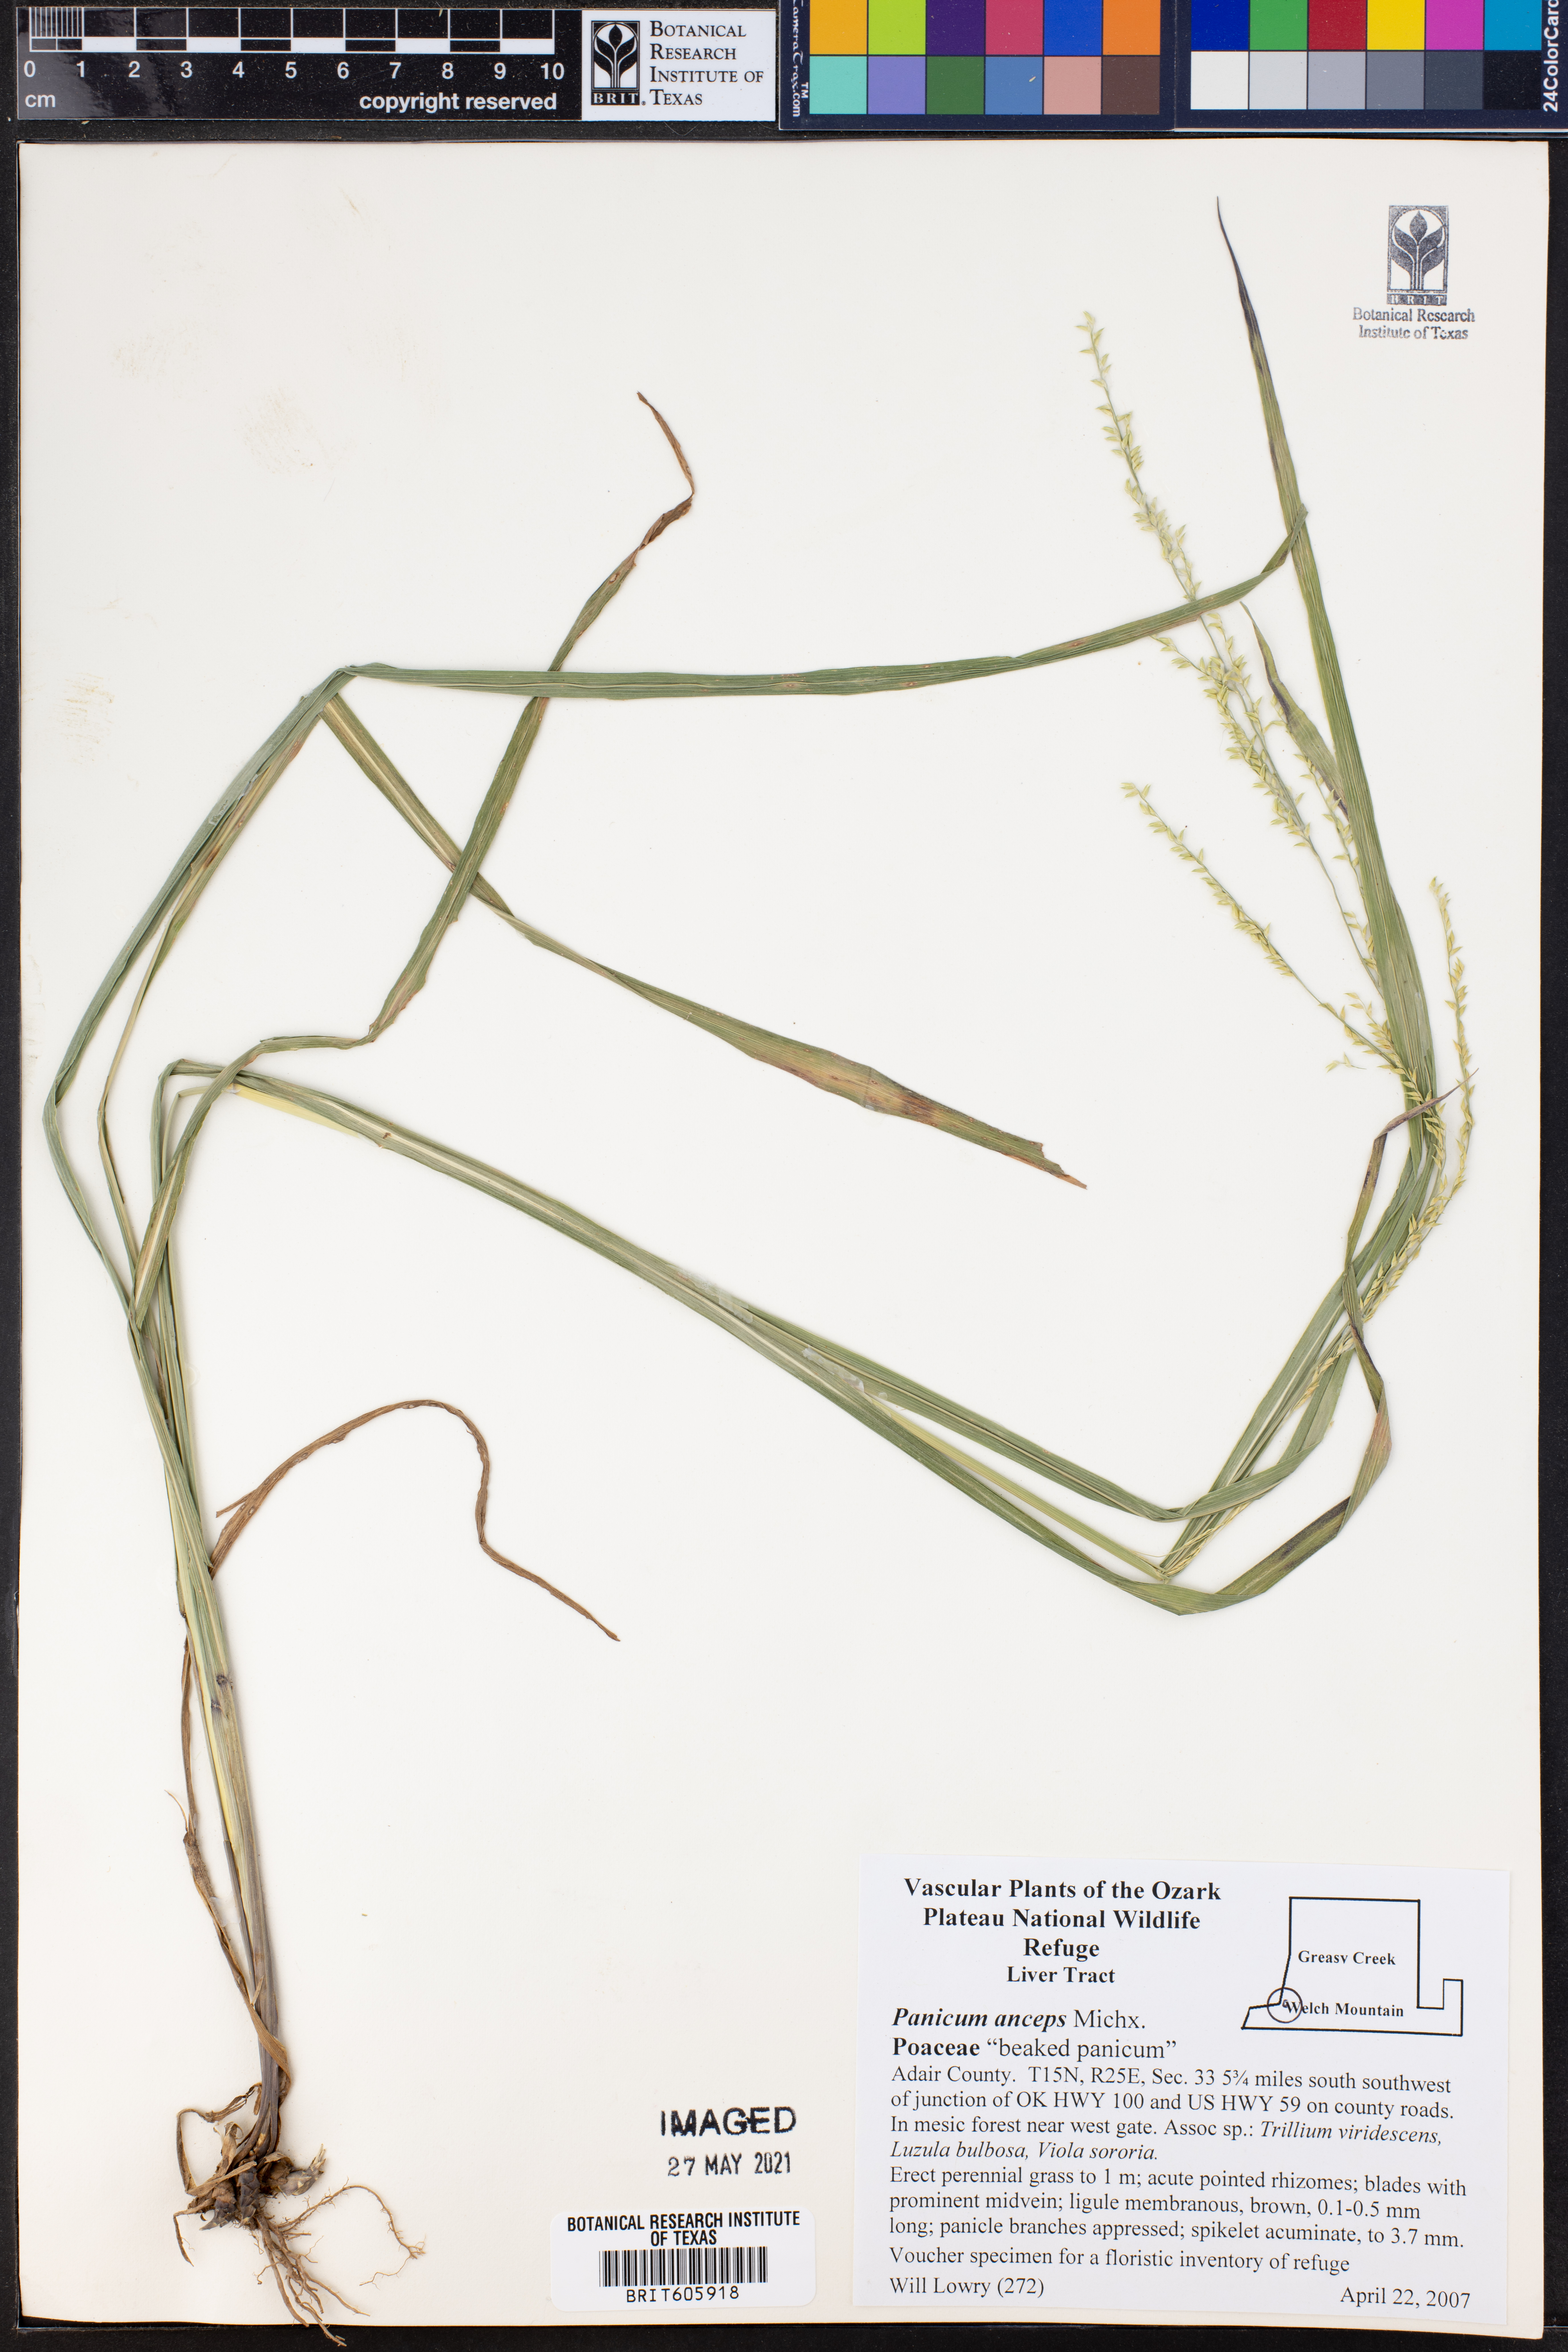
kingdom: Plantae
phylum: Tracheophyta
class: Liliopsida
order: Poales
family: Poaceae
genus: Coleataenia
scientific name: Coleataenia anceps
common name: Beaked panic grass
